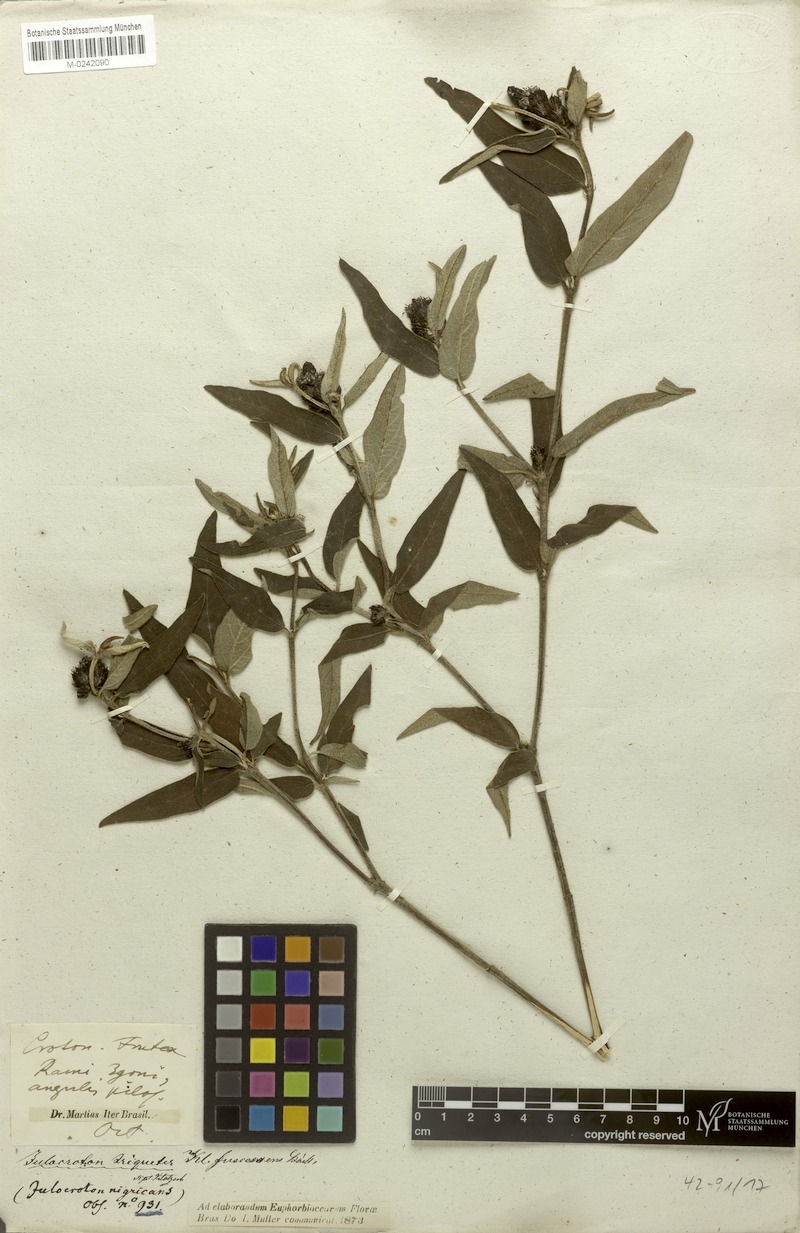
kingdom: Plantae
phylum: Tracheophyta
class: Magnoliopsida
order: Malpighiales
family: Euphorbiaceae
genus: Croton
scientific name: Croton gnaphaloides
